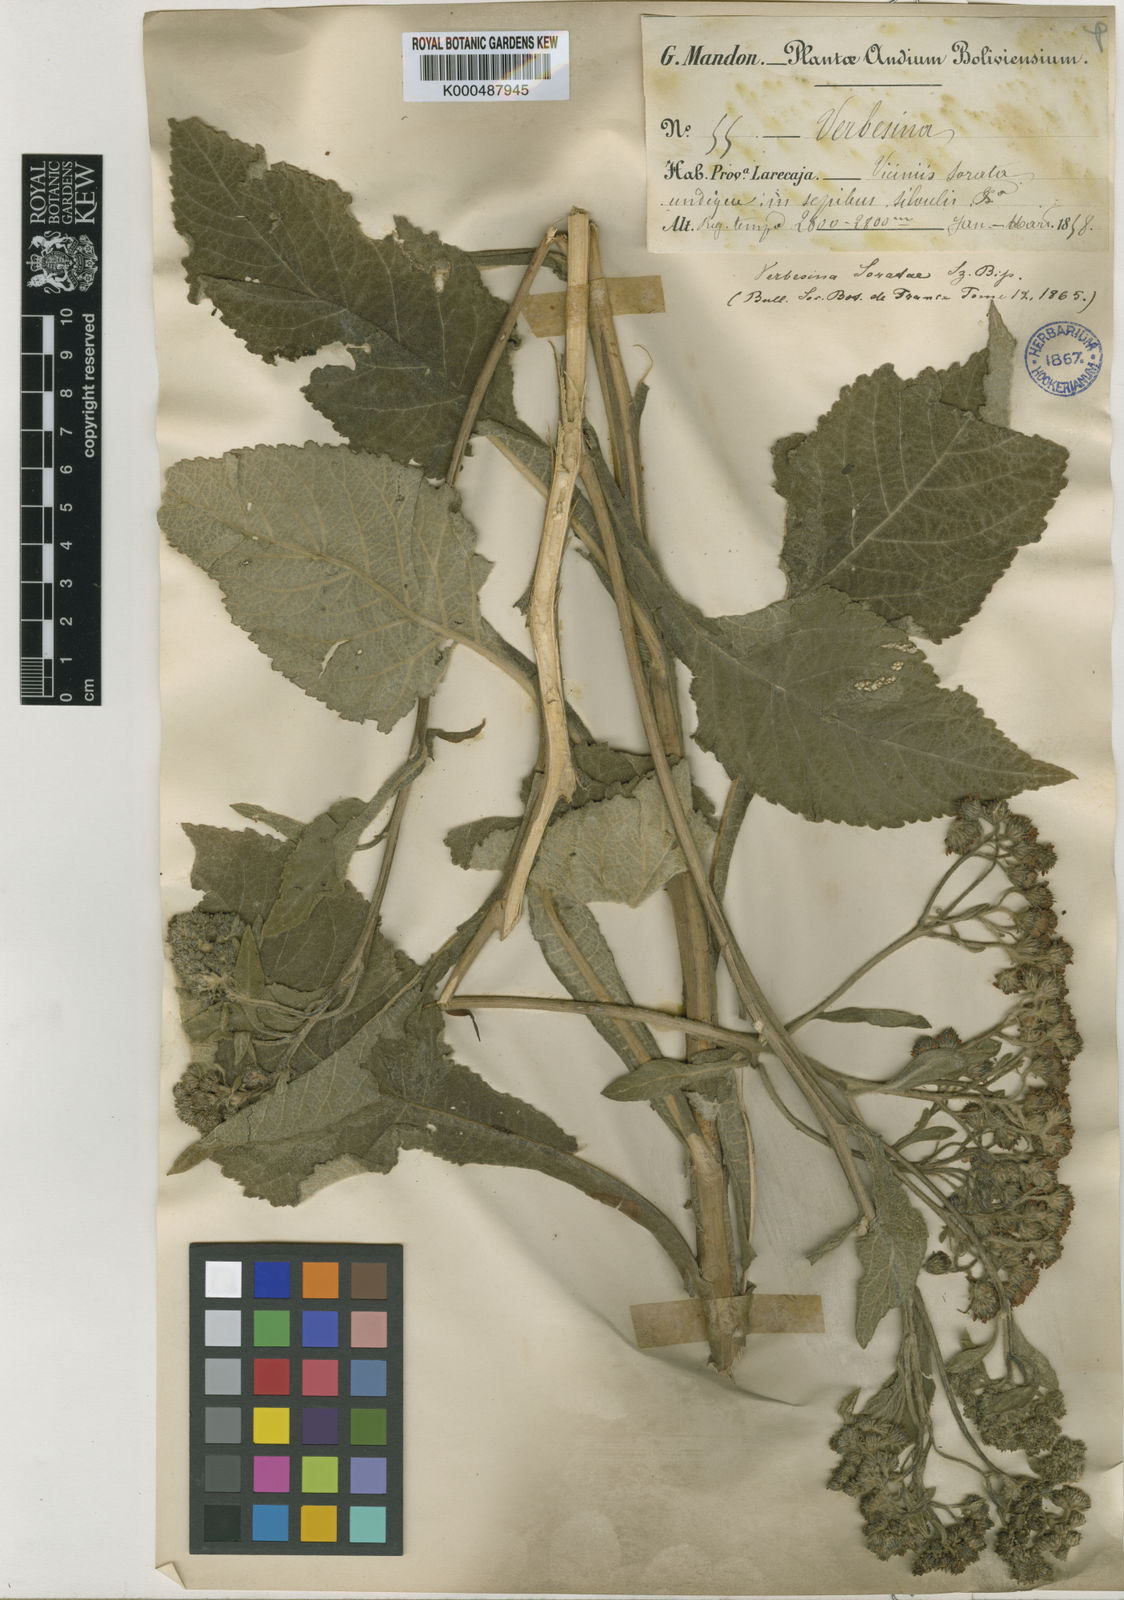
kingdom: Plantae
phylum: Tracheophyta
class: Magnoliopsida
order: Asterales
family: Asteraceae
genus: Verbesina
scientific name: Verbesina
